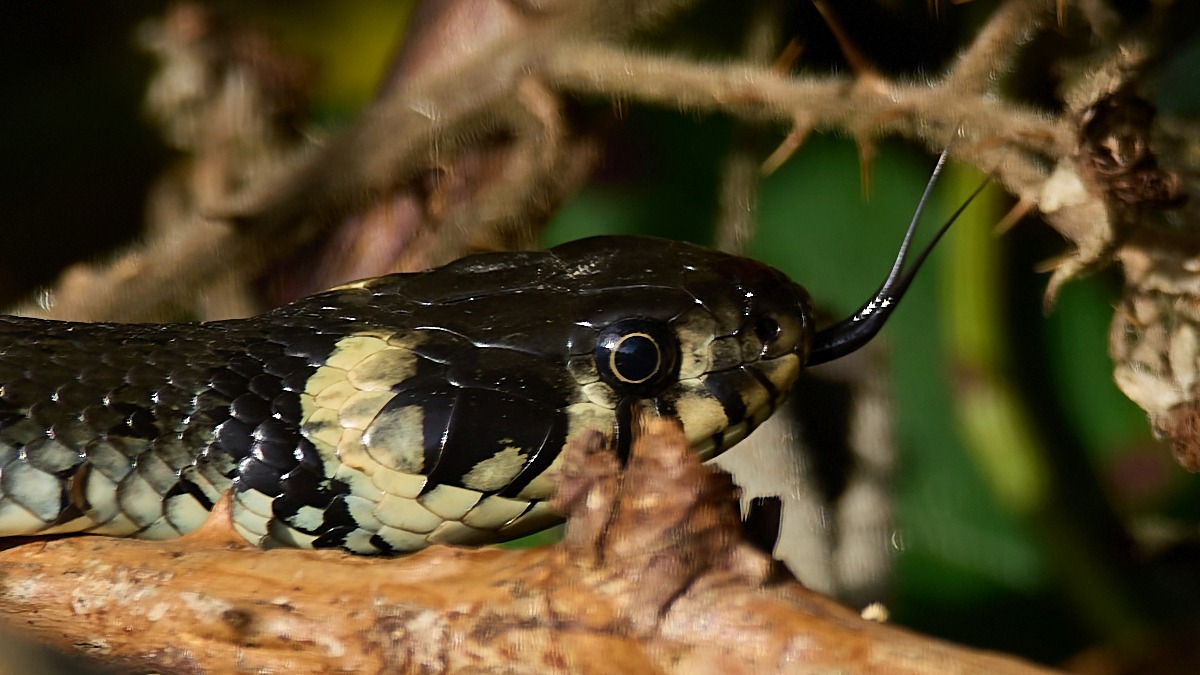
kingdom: Animalia
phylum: Chordata
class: Squamata
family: Colubridae
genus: Natrix
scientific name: Natrix natrix
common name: Snog
